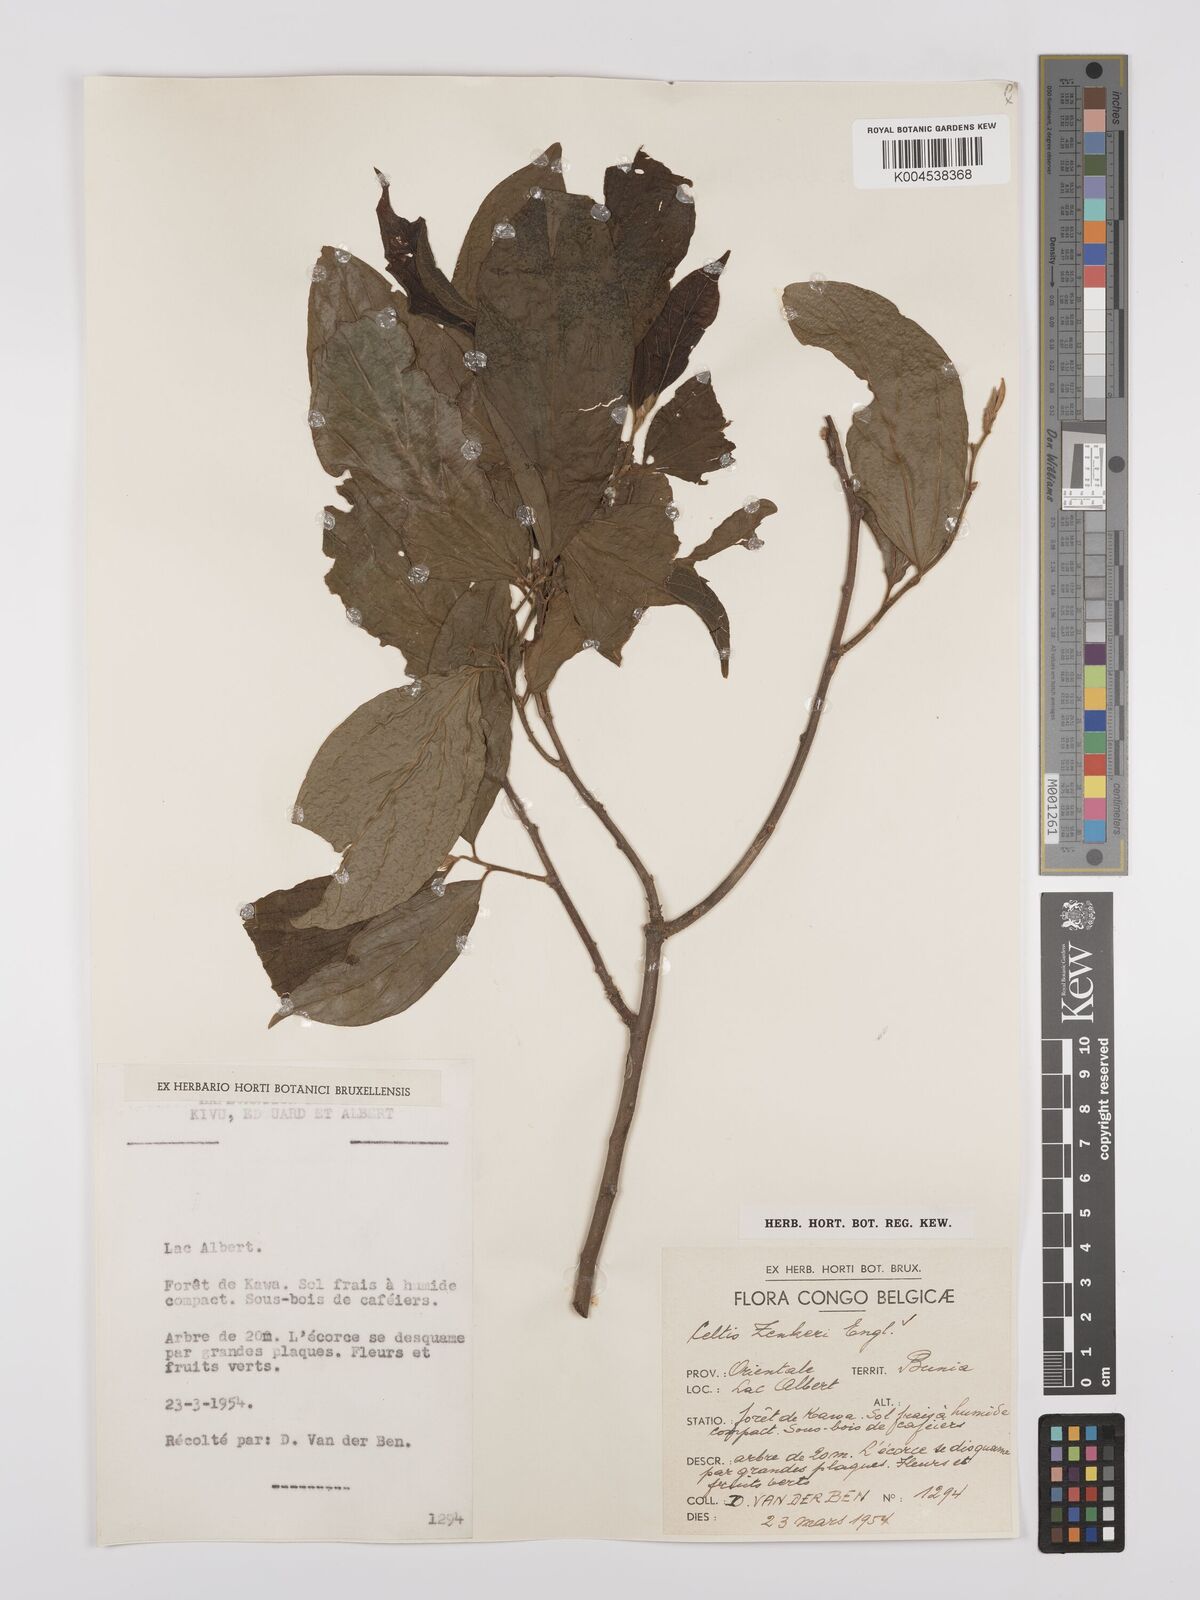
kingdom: Plantae
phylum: Tracheophyta
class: Magnoliopsida
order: Rosales
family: Cannabaceae
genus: Celtis
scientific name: Celtis zenkeri
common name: African celtis
